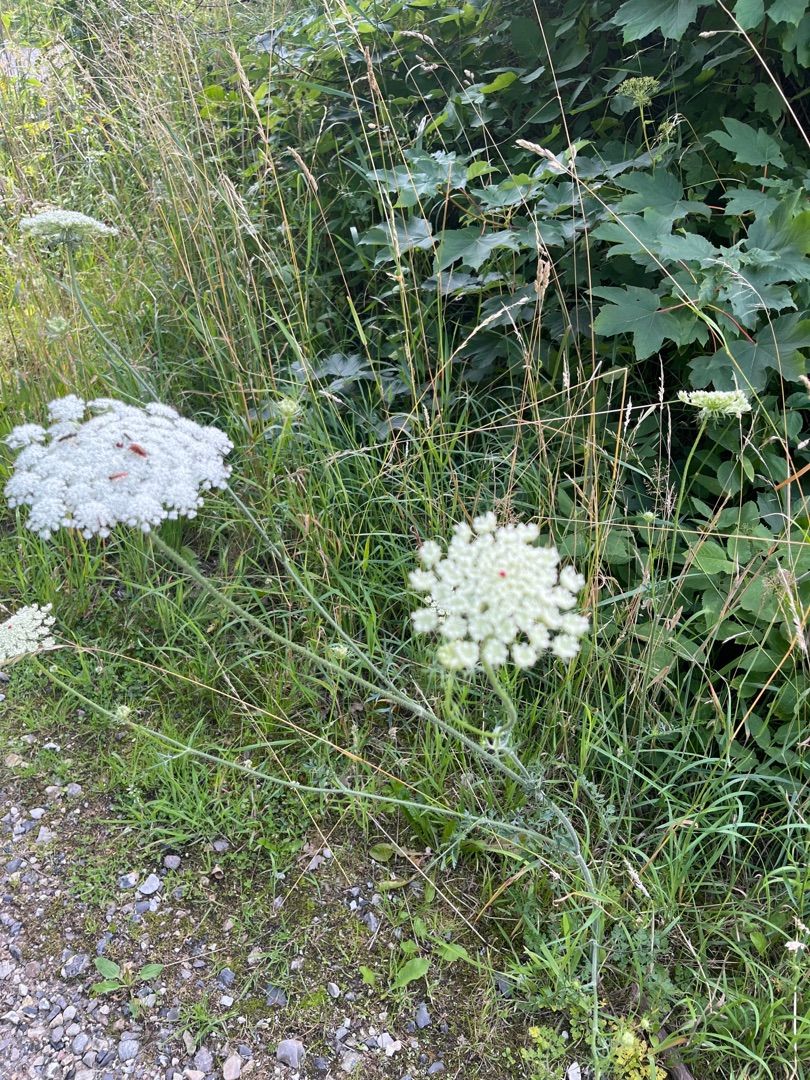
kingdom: Plantae
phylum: Tracheophyta
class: Magnoliopsida
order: Apiales
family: Apiaceae
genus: Daucus
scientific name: Daucus carota
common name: Gulerod
